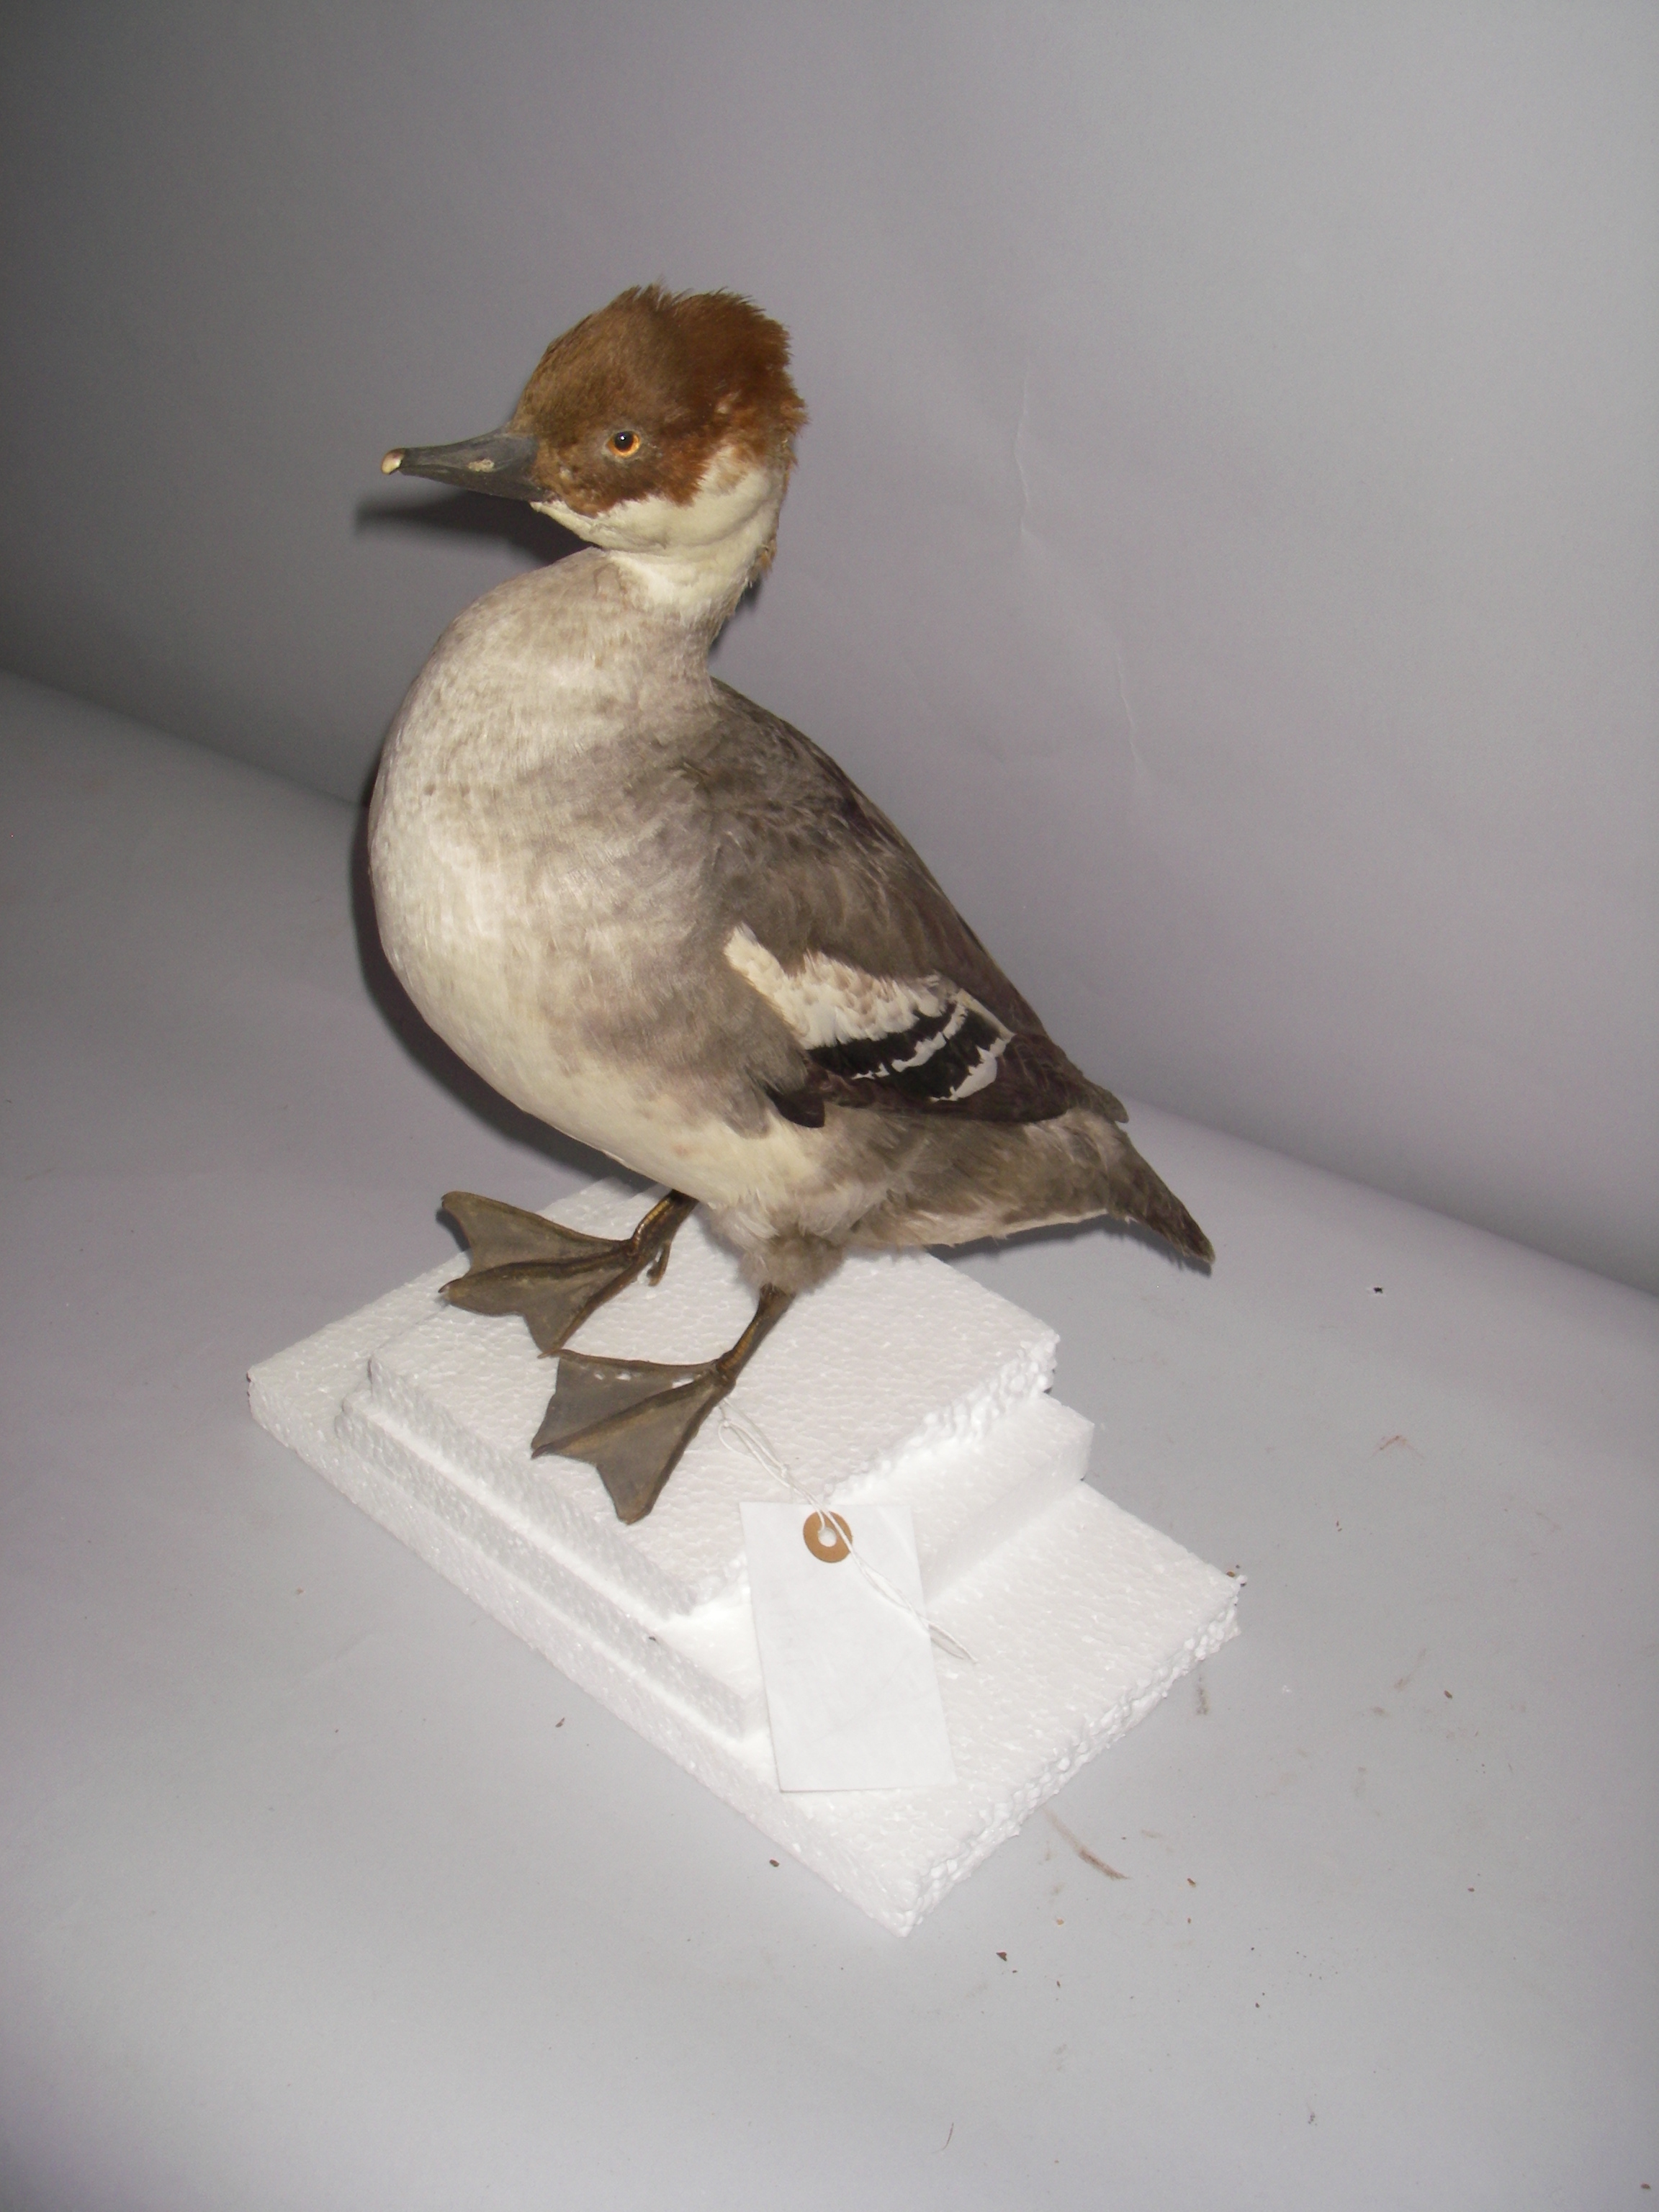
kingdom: Animalia
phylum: Chordata
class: Aves
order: Anseriformes
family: Anatidae
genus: Mergellus
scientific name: Mergellus albellus
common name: Smew
